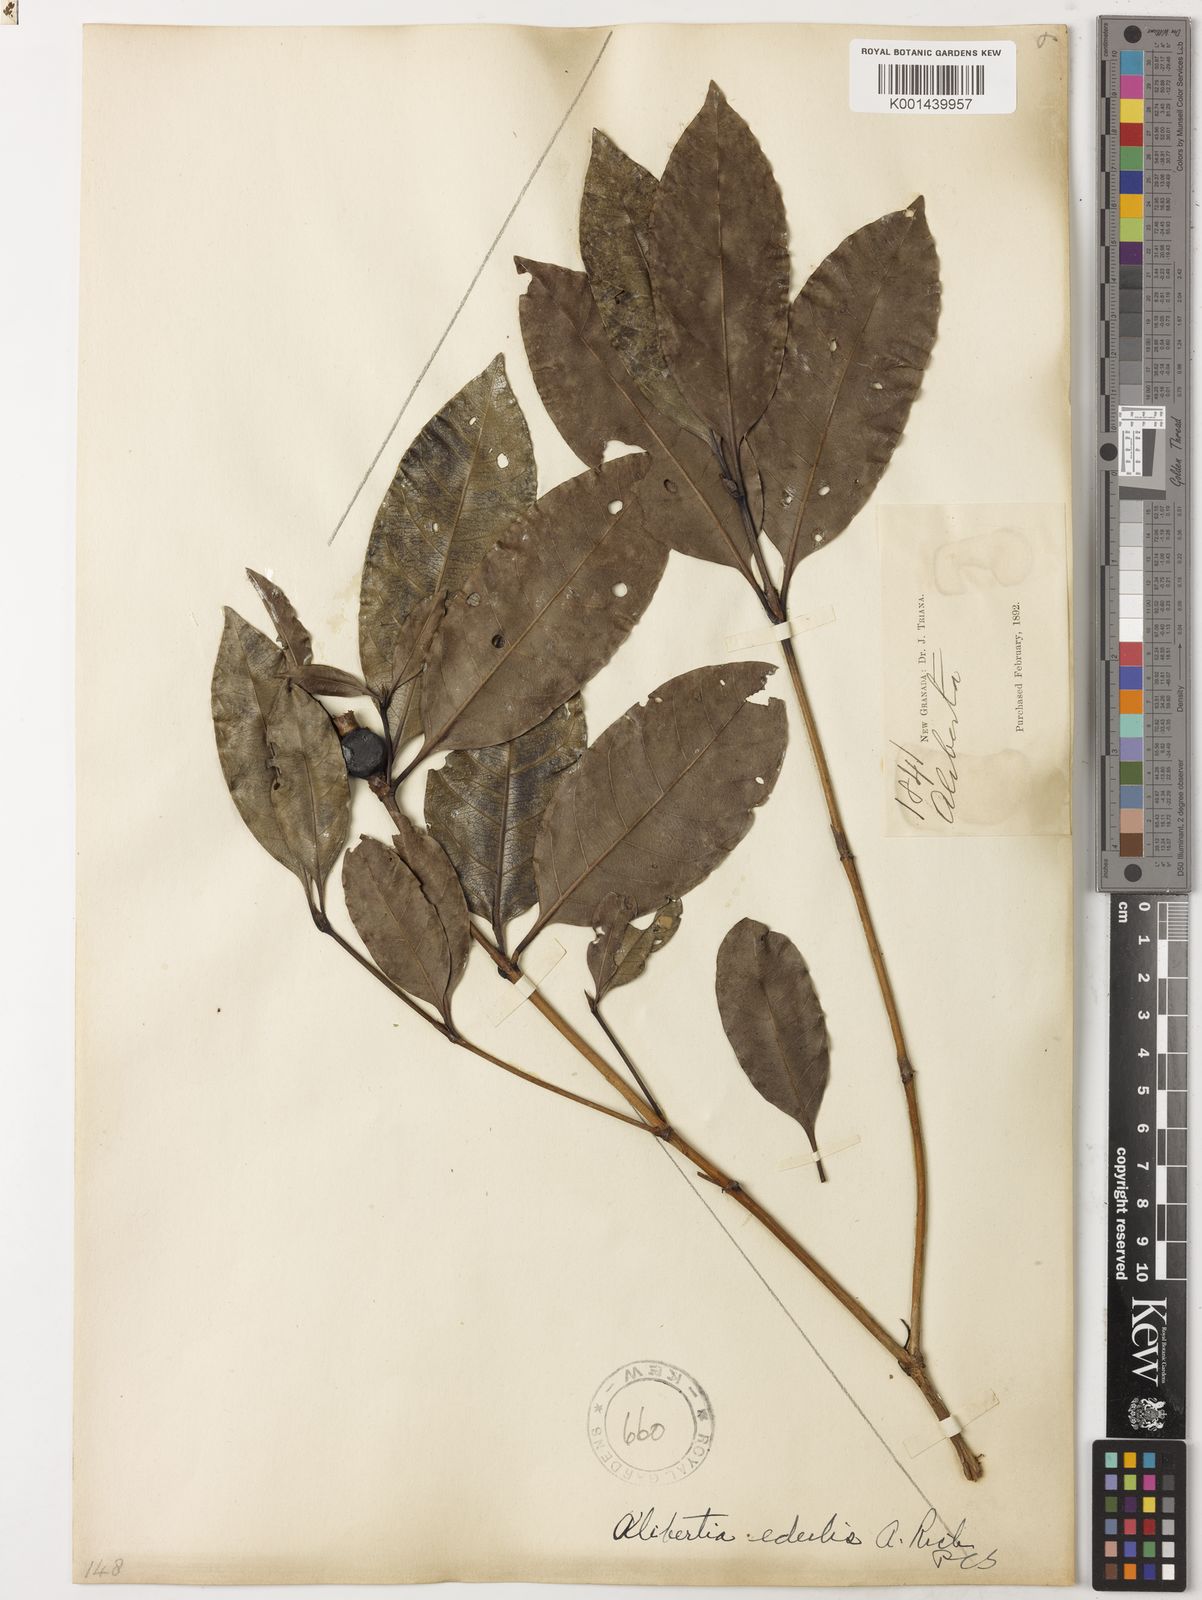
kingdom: Plantae
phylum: Tracheophyta
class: Magnoliopsida
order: Gentianales
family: Rubiaceae
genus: Alibertia
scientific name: Alibertia edulis
